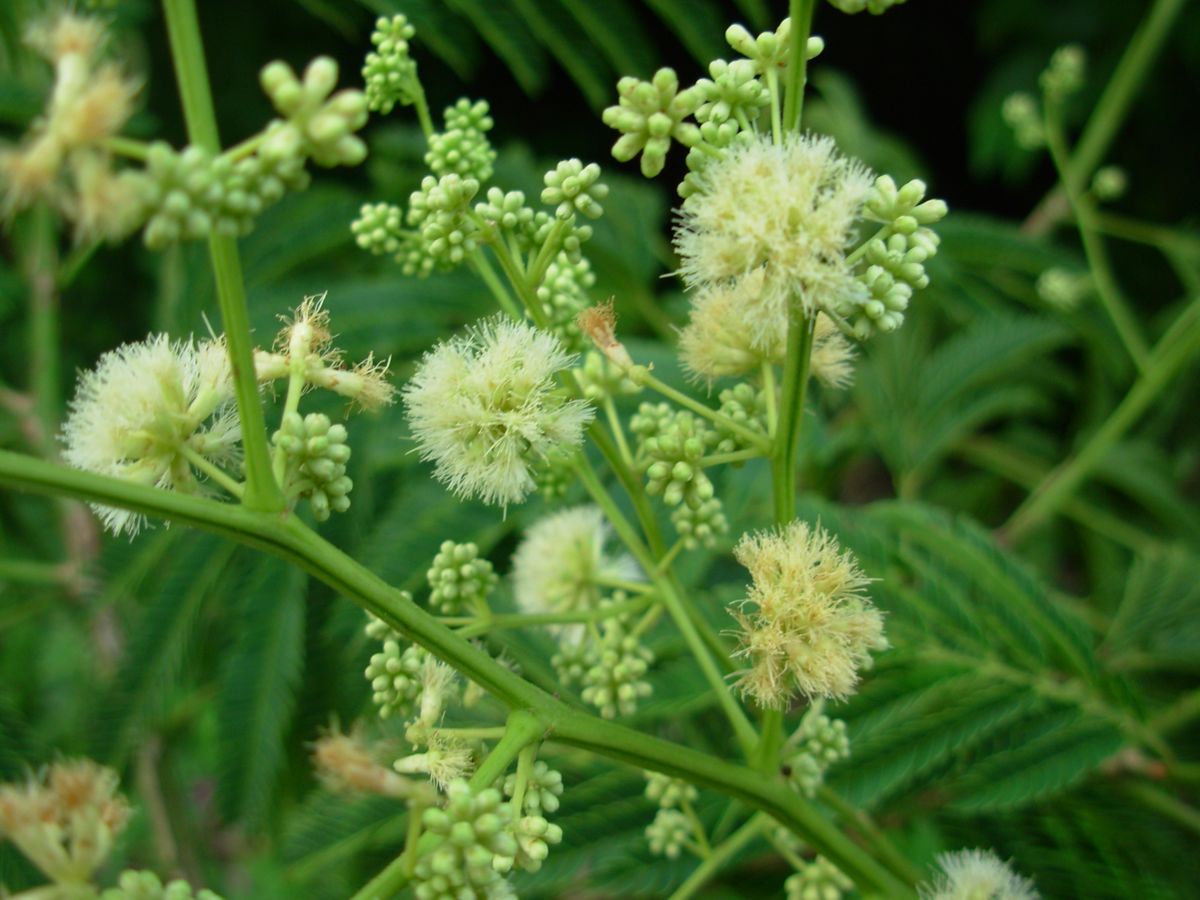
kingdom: Plantae
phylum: Tracheophyta
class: Magnoliopsida
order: Fabales
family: Fabaceae
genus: Acaciella
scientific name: Acaciella angustissima
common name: Prairie acacia
